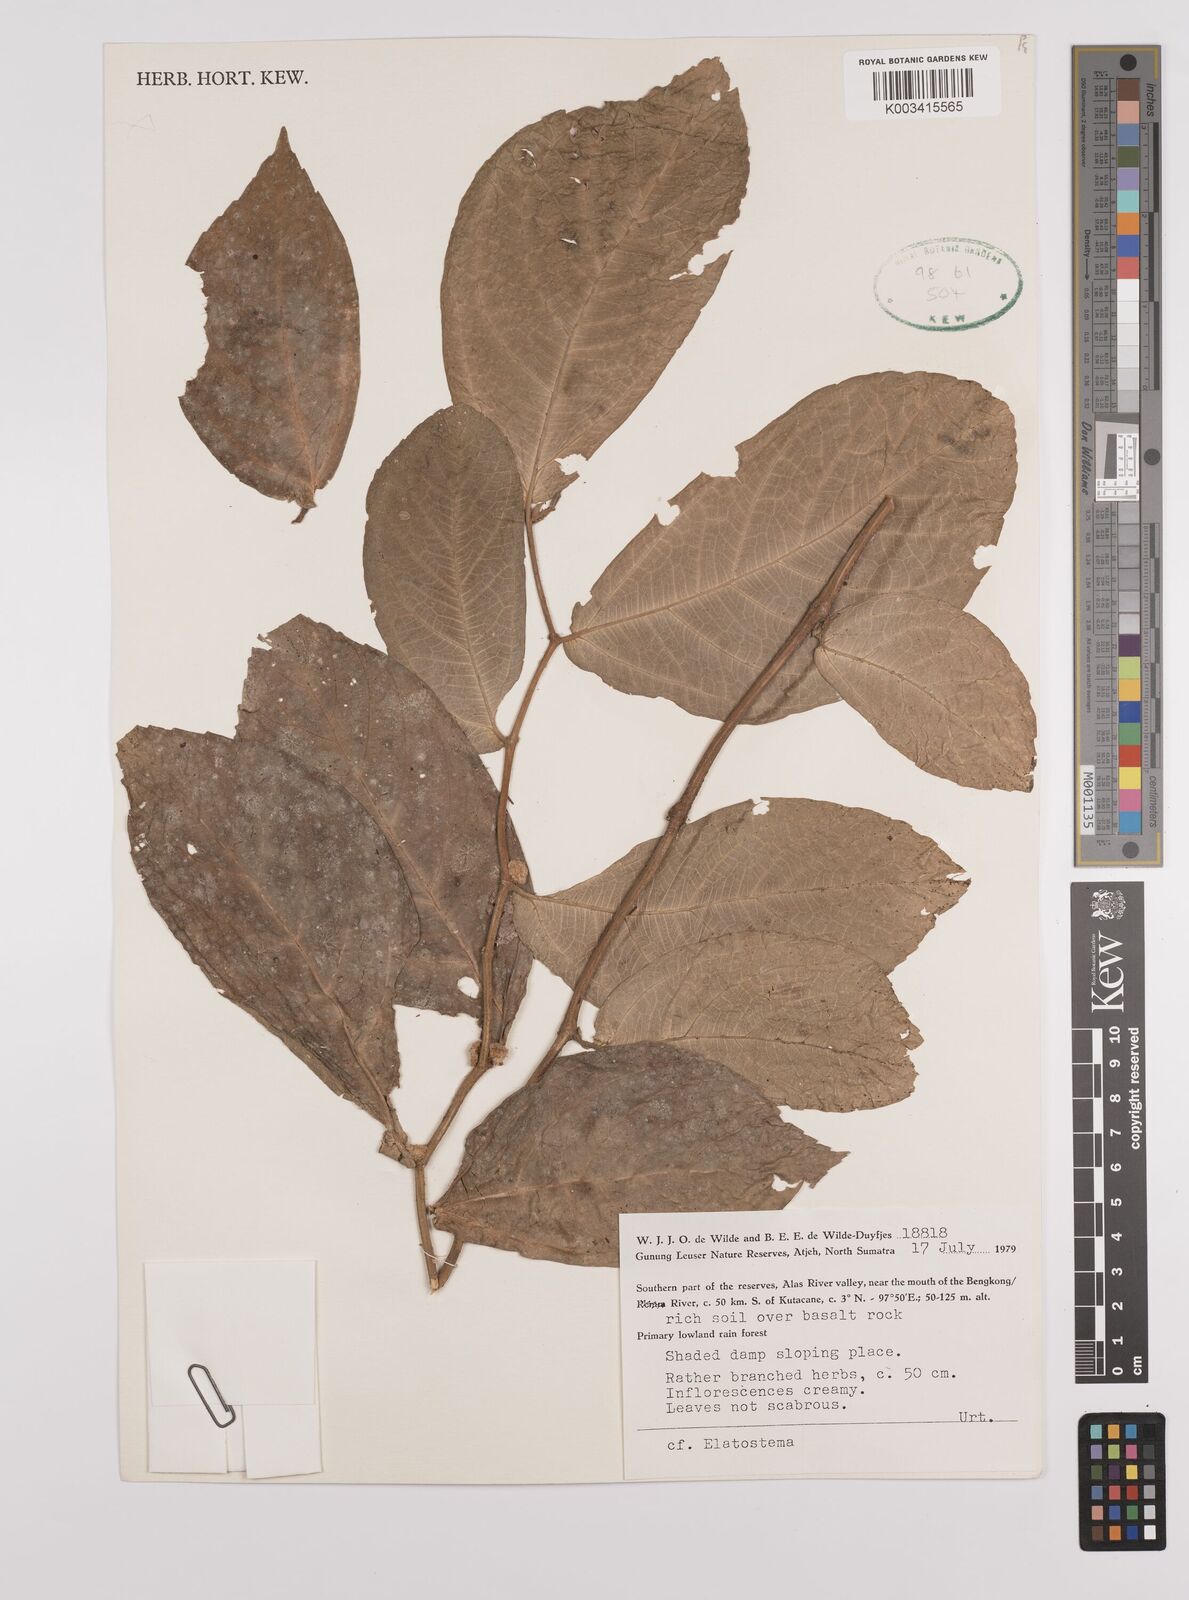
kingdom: Plantae
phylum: Tracheophyta
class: Magnoliopsida
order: Rosales
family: Urticaceae
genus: Elatostema
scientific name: Elatostema
